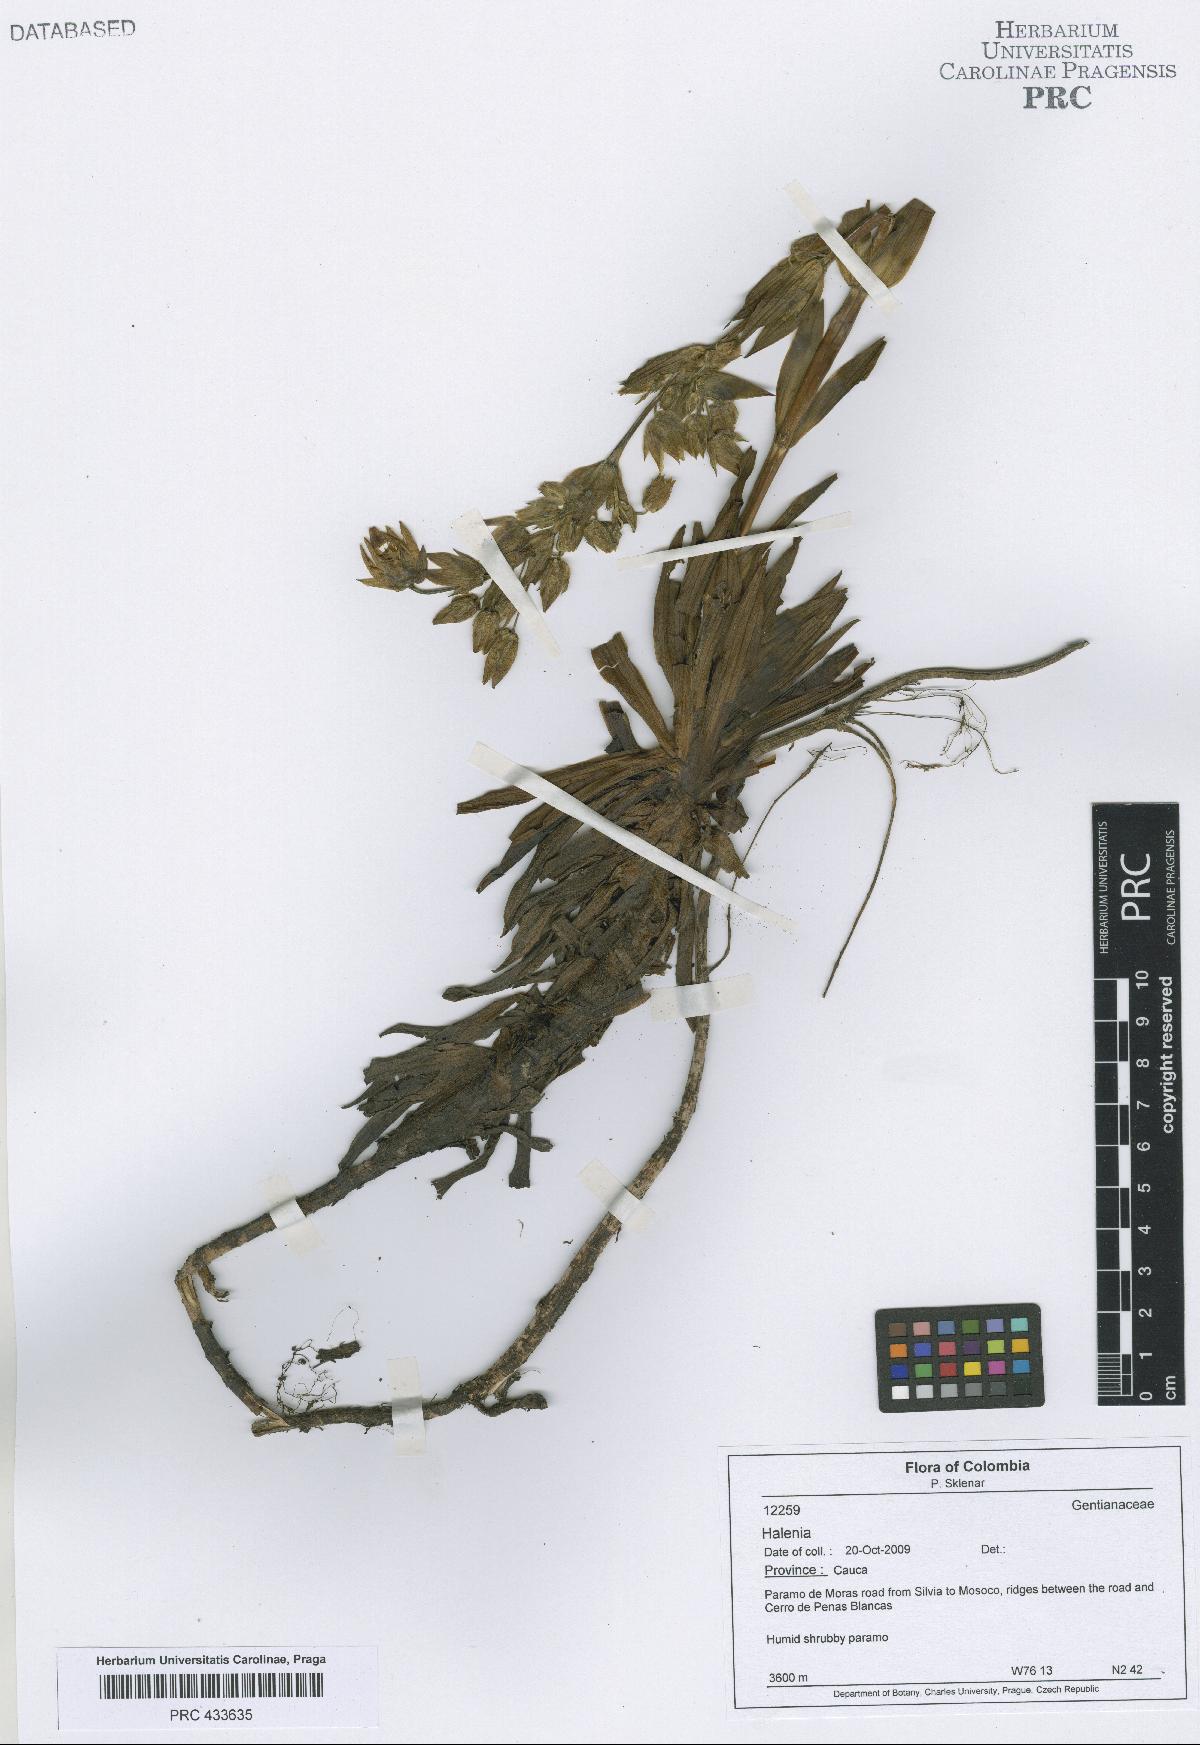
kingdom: Plantae
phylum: Tracheophyta
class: Magnoliopsida
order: Gentianales
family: Gentianaceae
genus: Halenia
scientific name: Halenia
